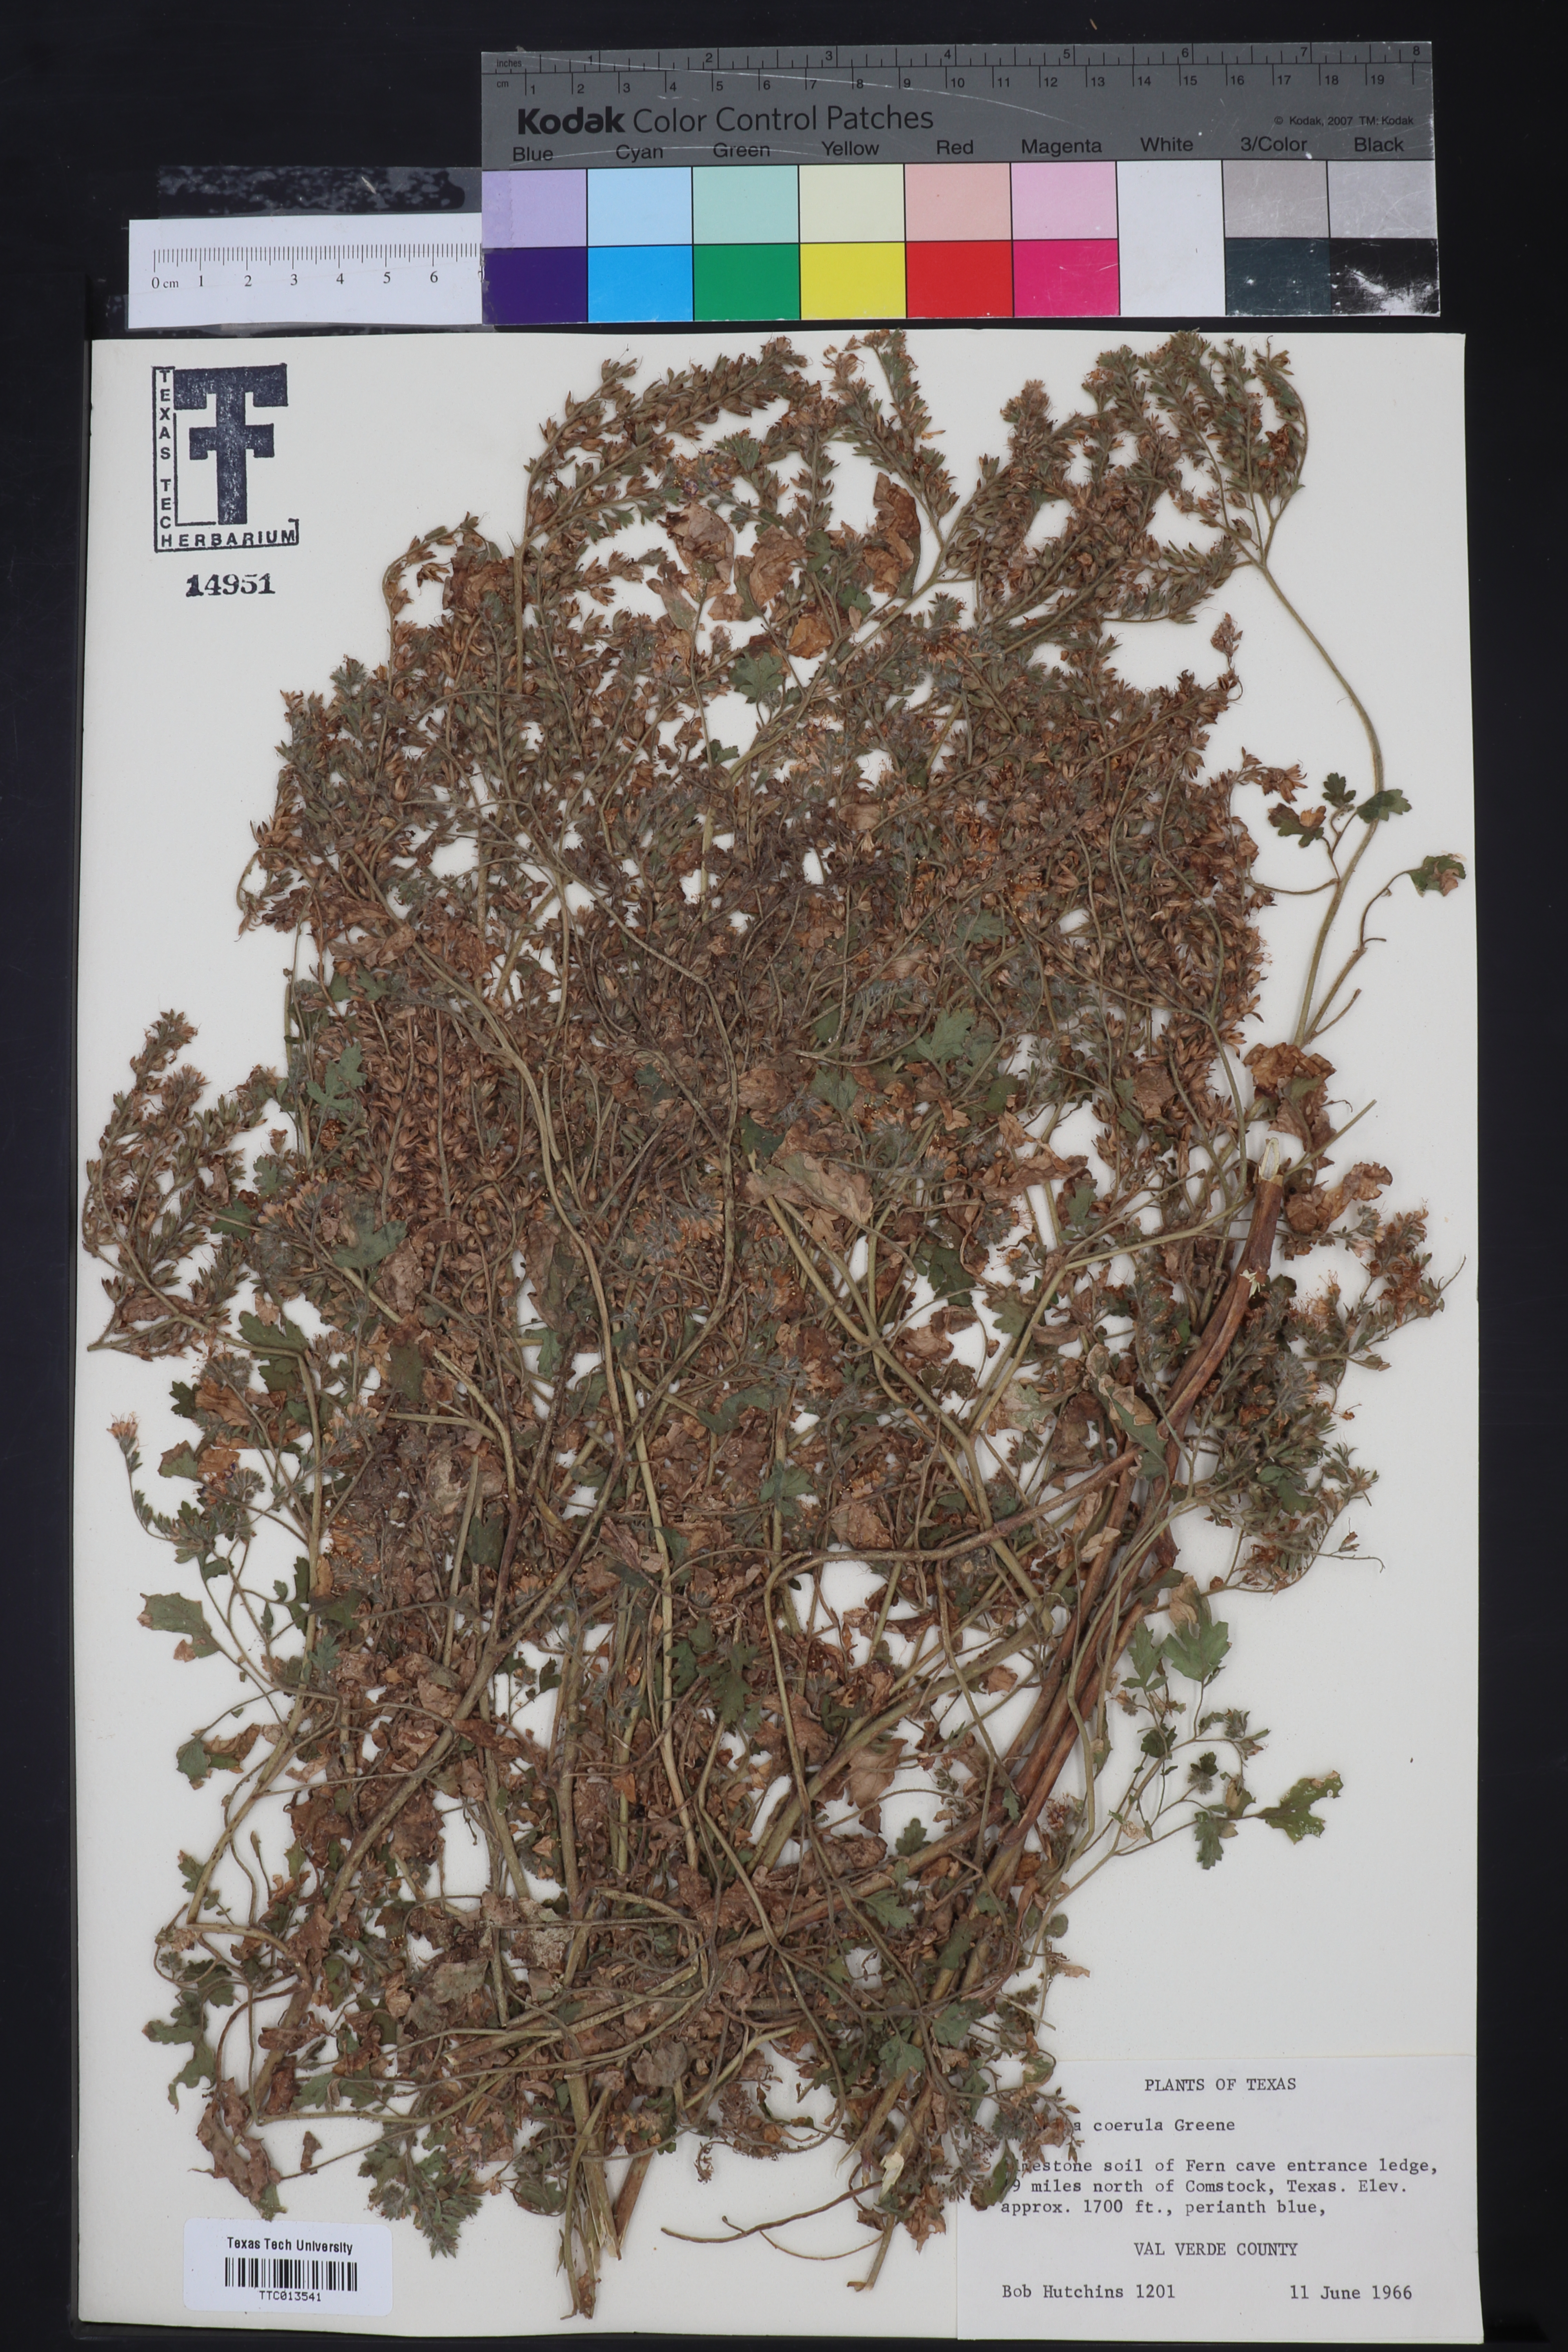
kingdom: Plantae
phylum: Tracheophyta
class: Magnoliopsida
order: Boraginales
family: Hydrophyllaceae
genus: Phacelia
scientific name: Phacelia coerulea
